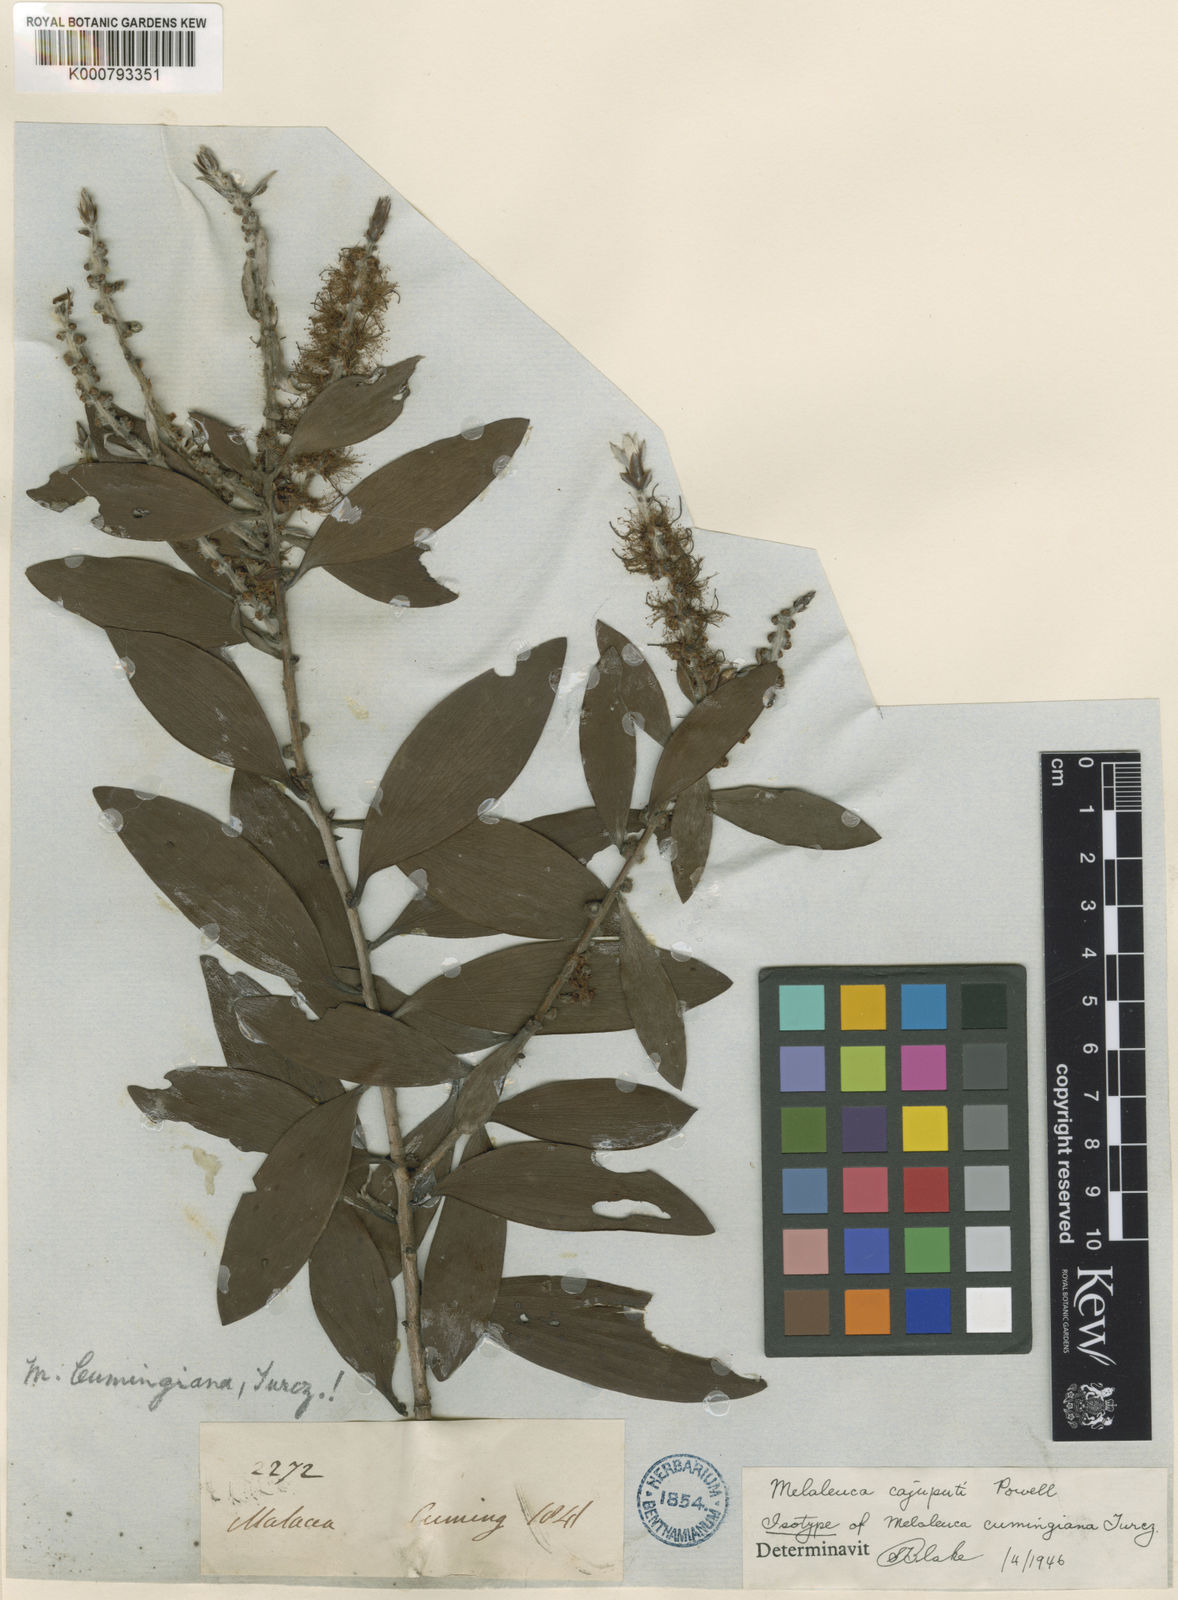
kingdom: Plantae
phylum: Tracheophyta
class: Magnoliopsida
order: Myrtales
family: Myrtaceae
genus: Melaleuca
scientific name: Melaleuca cajuputi
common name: Cajuput
